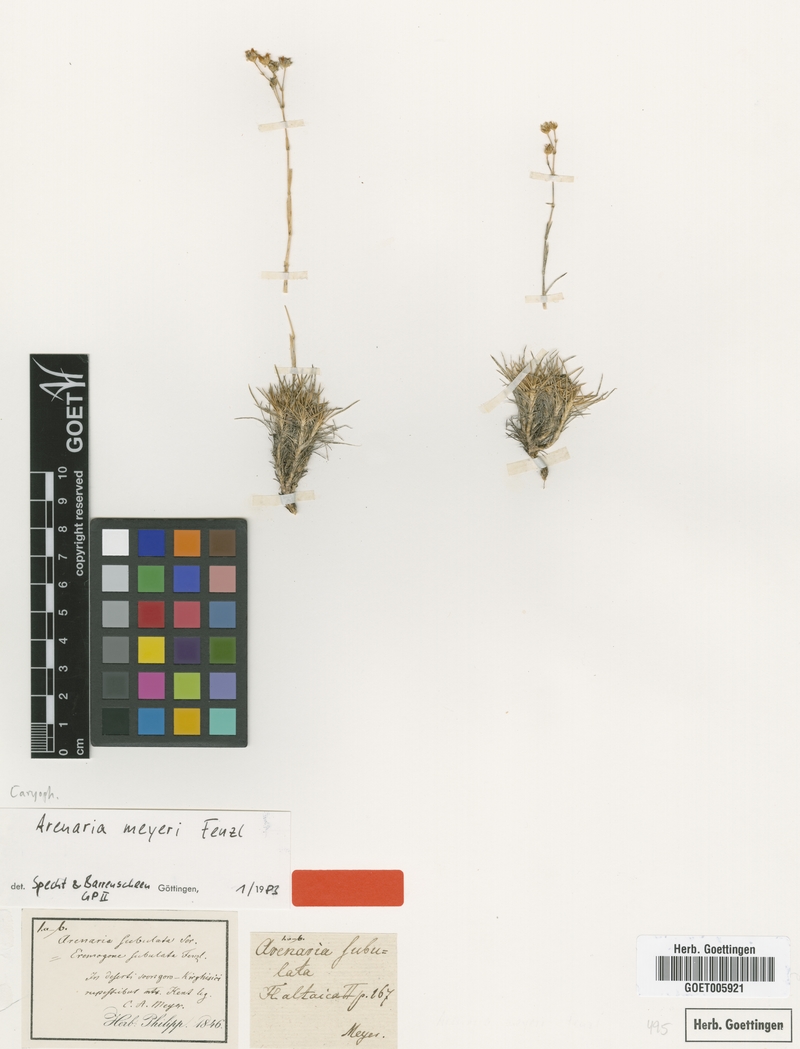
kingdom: Plantae
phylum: Tracheophyta
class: Magnoliopsida
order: Caryophyllales
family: Caryophyllaceae
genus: Eremogone
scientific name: Eremogone meyeri
